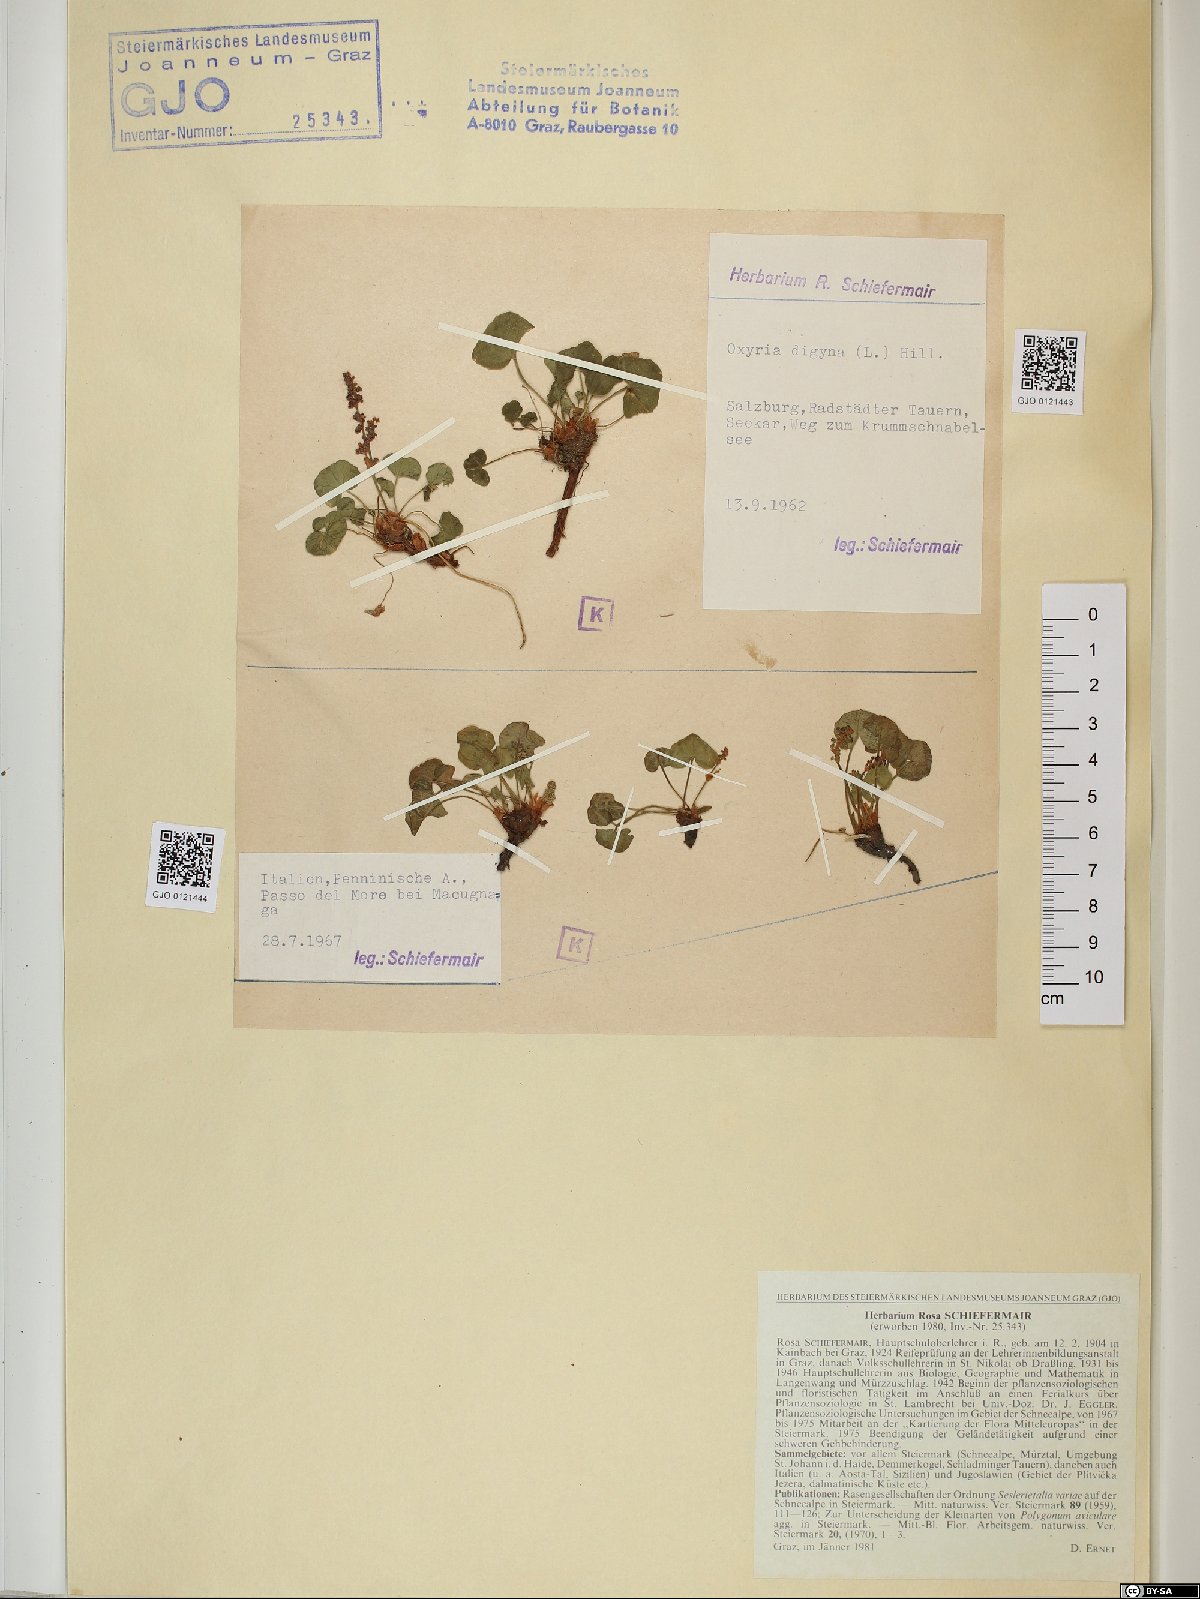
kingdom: Plantae
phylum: Tracheophyta
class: Magnoliopsida
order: Caryophyllales
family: Polygonaceae
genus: Oxyria
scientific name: Oxyria digyna
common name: Alpine mountain-sorrel
